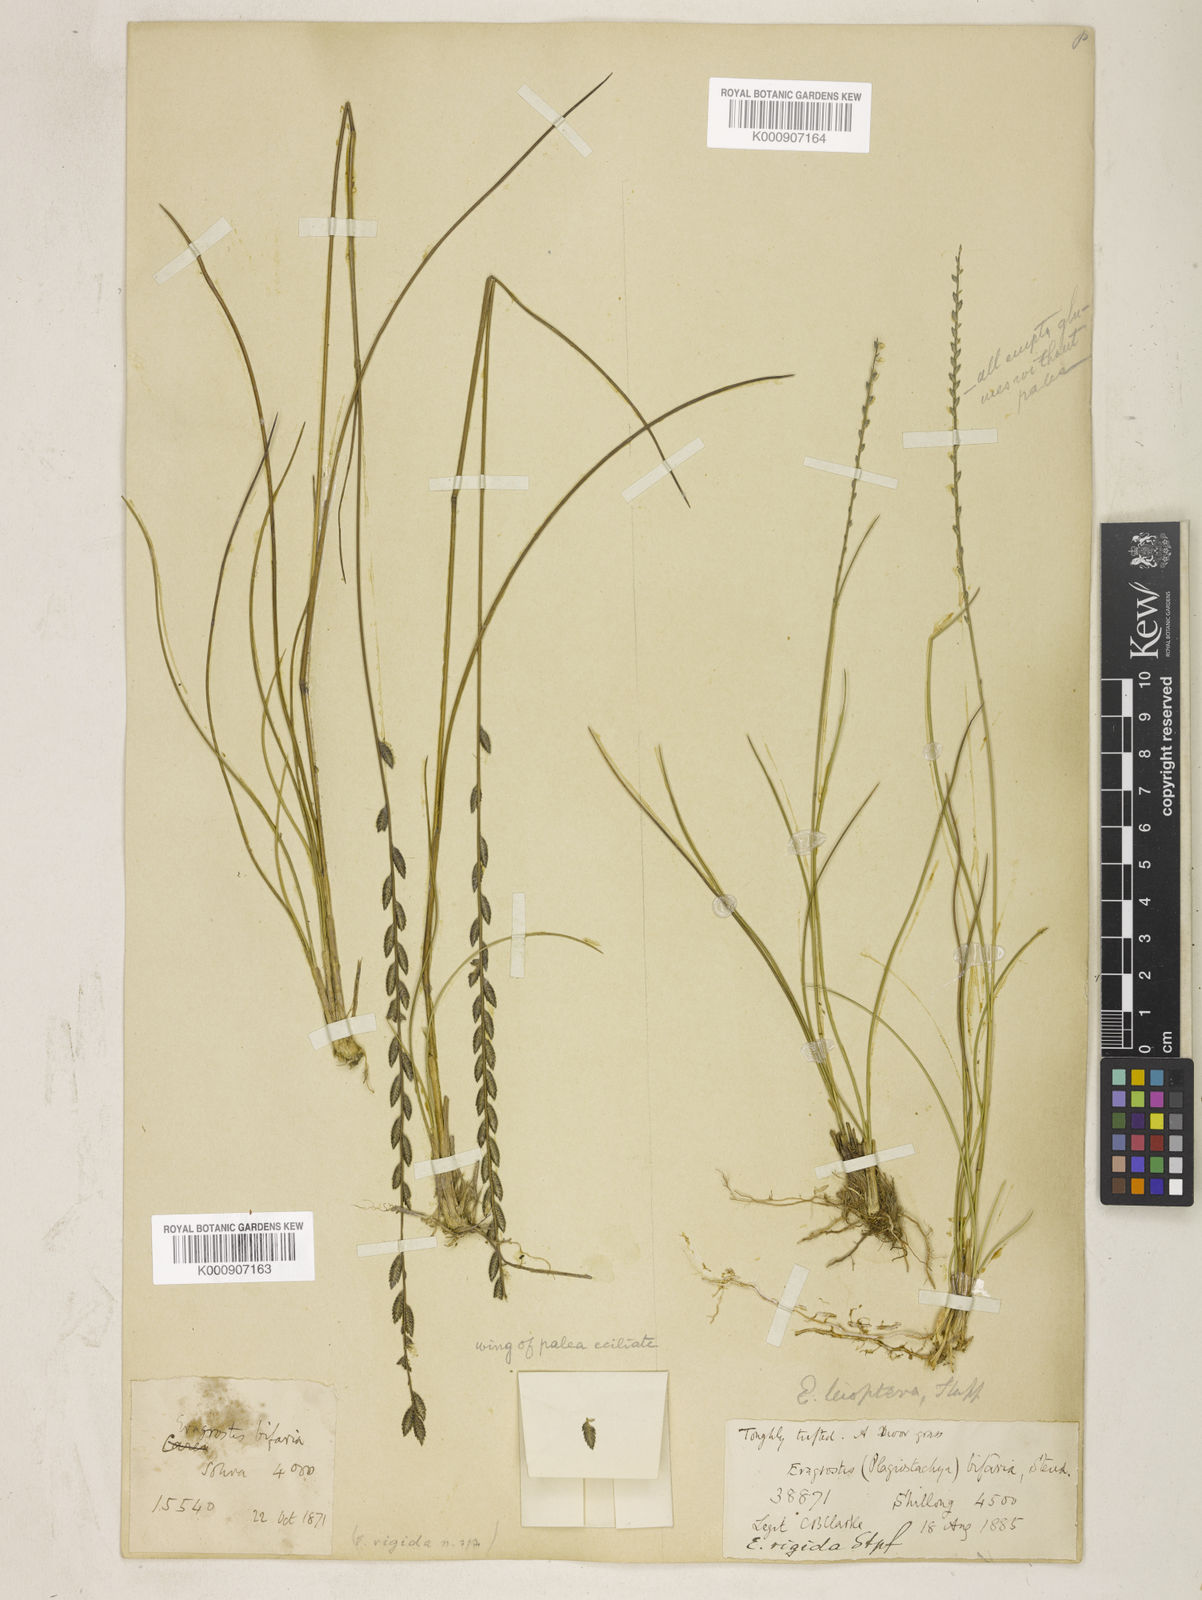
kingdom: Plantae
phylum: Tracheophyta
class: Liliopsida
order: Poales
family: Poaceae
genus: Eragrostiella
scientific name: Eragrostiella leioptera
